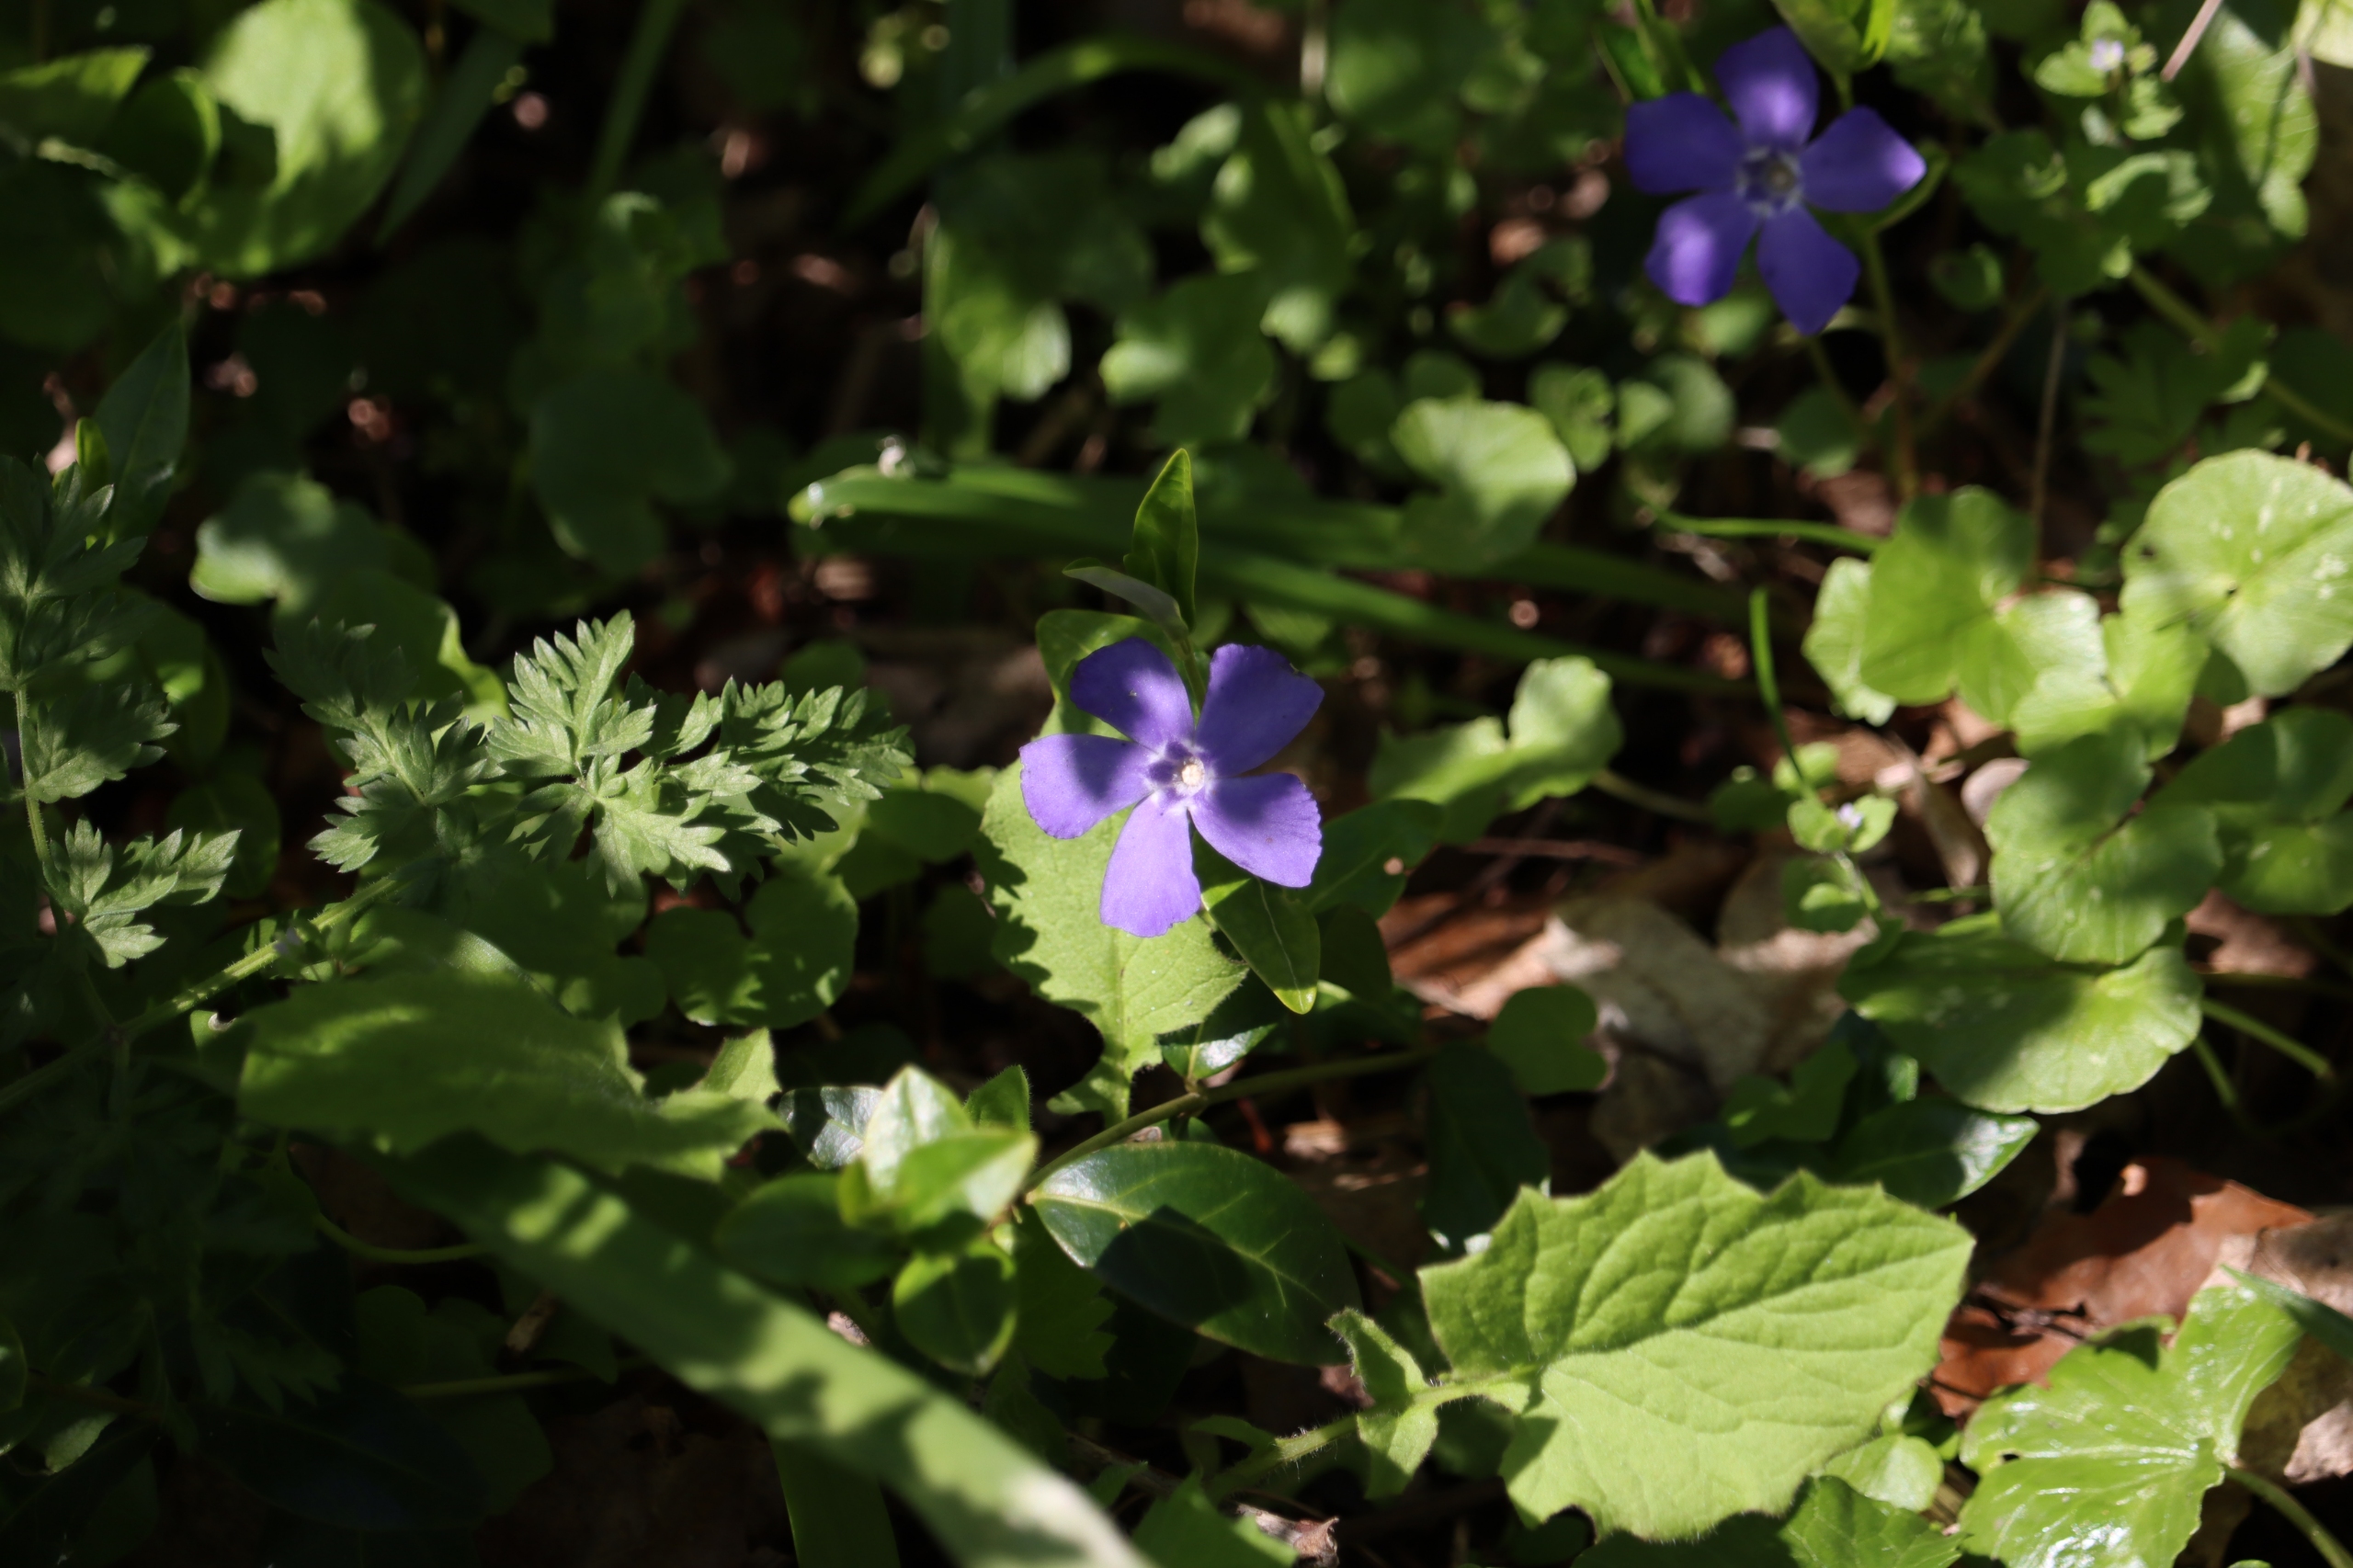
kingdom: Plantae
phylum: Tracheophyta
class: Magnoliopsida
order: Gentianales
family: Apocynaceae
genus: Vinca
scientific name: Vinca minor
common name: Liden singrøn
